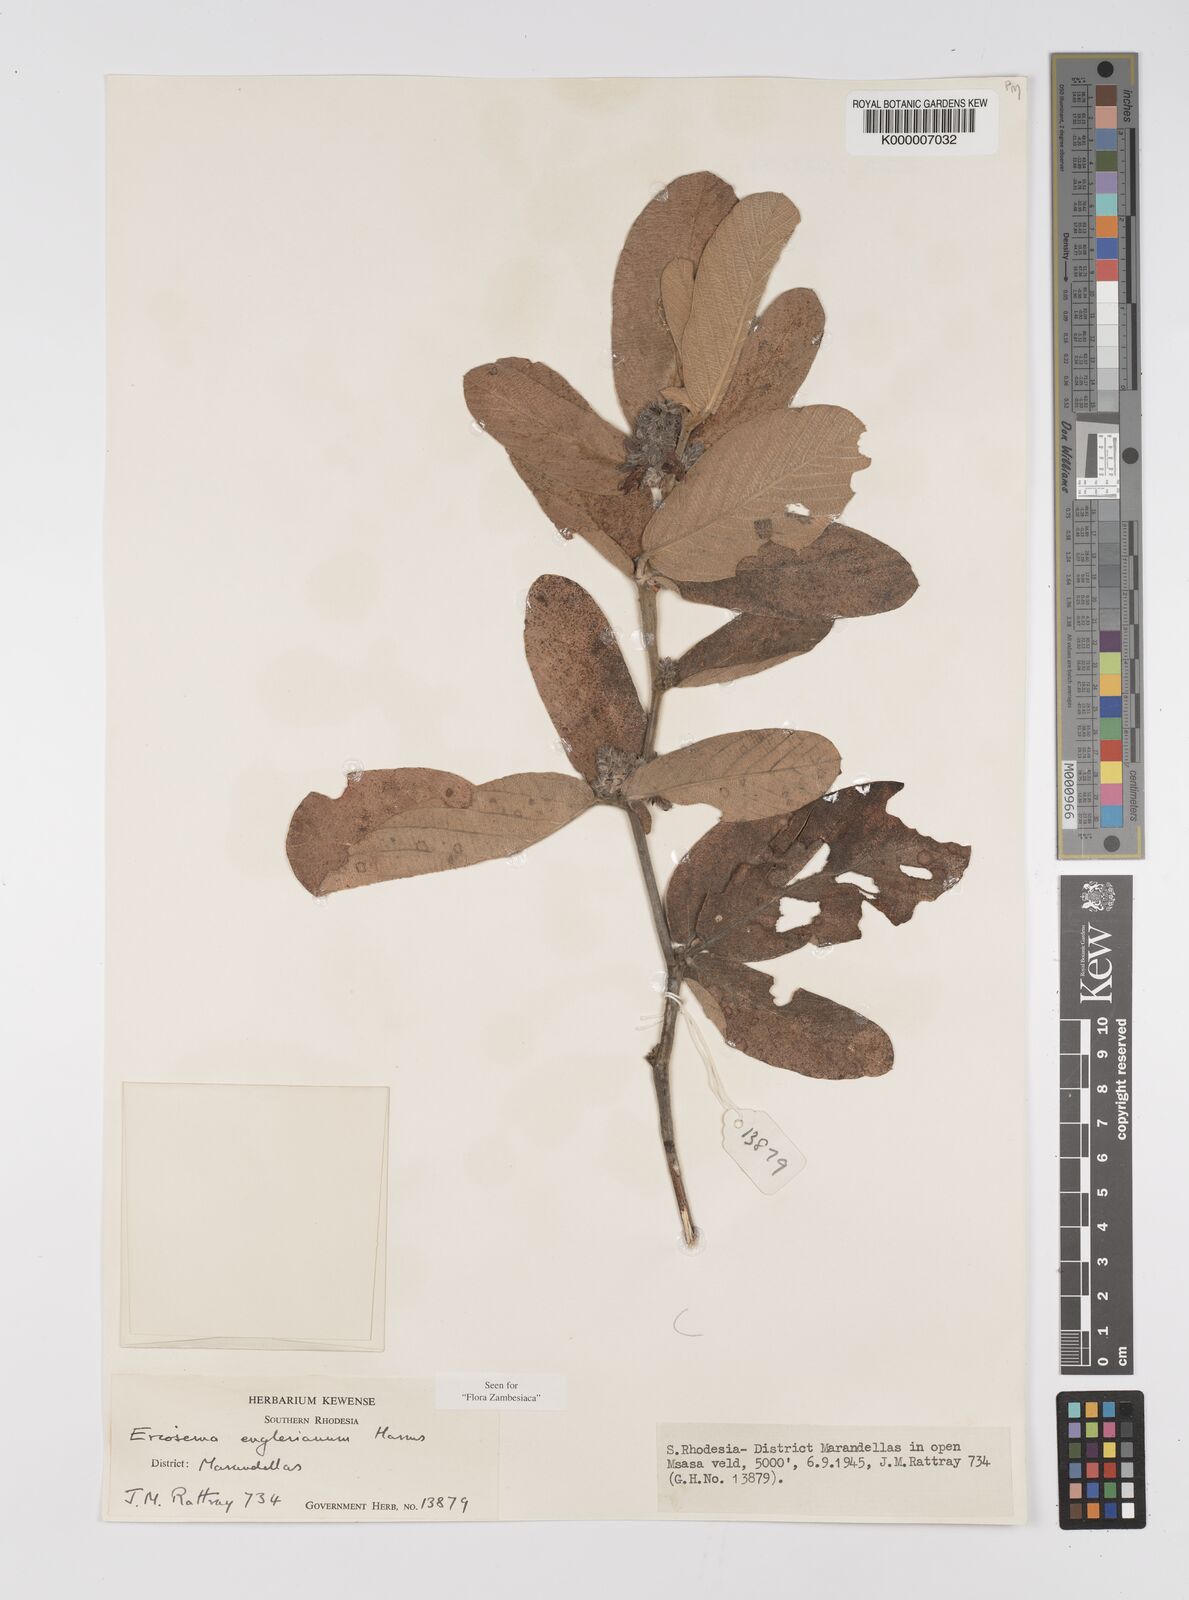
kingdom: Plantae
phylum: Tracheophyta
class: Magnoliopsida
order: Fabales
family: Fabaceae
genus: Eriosema
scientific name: Eriosema englerianum
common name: Blue bush
